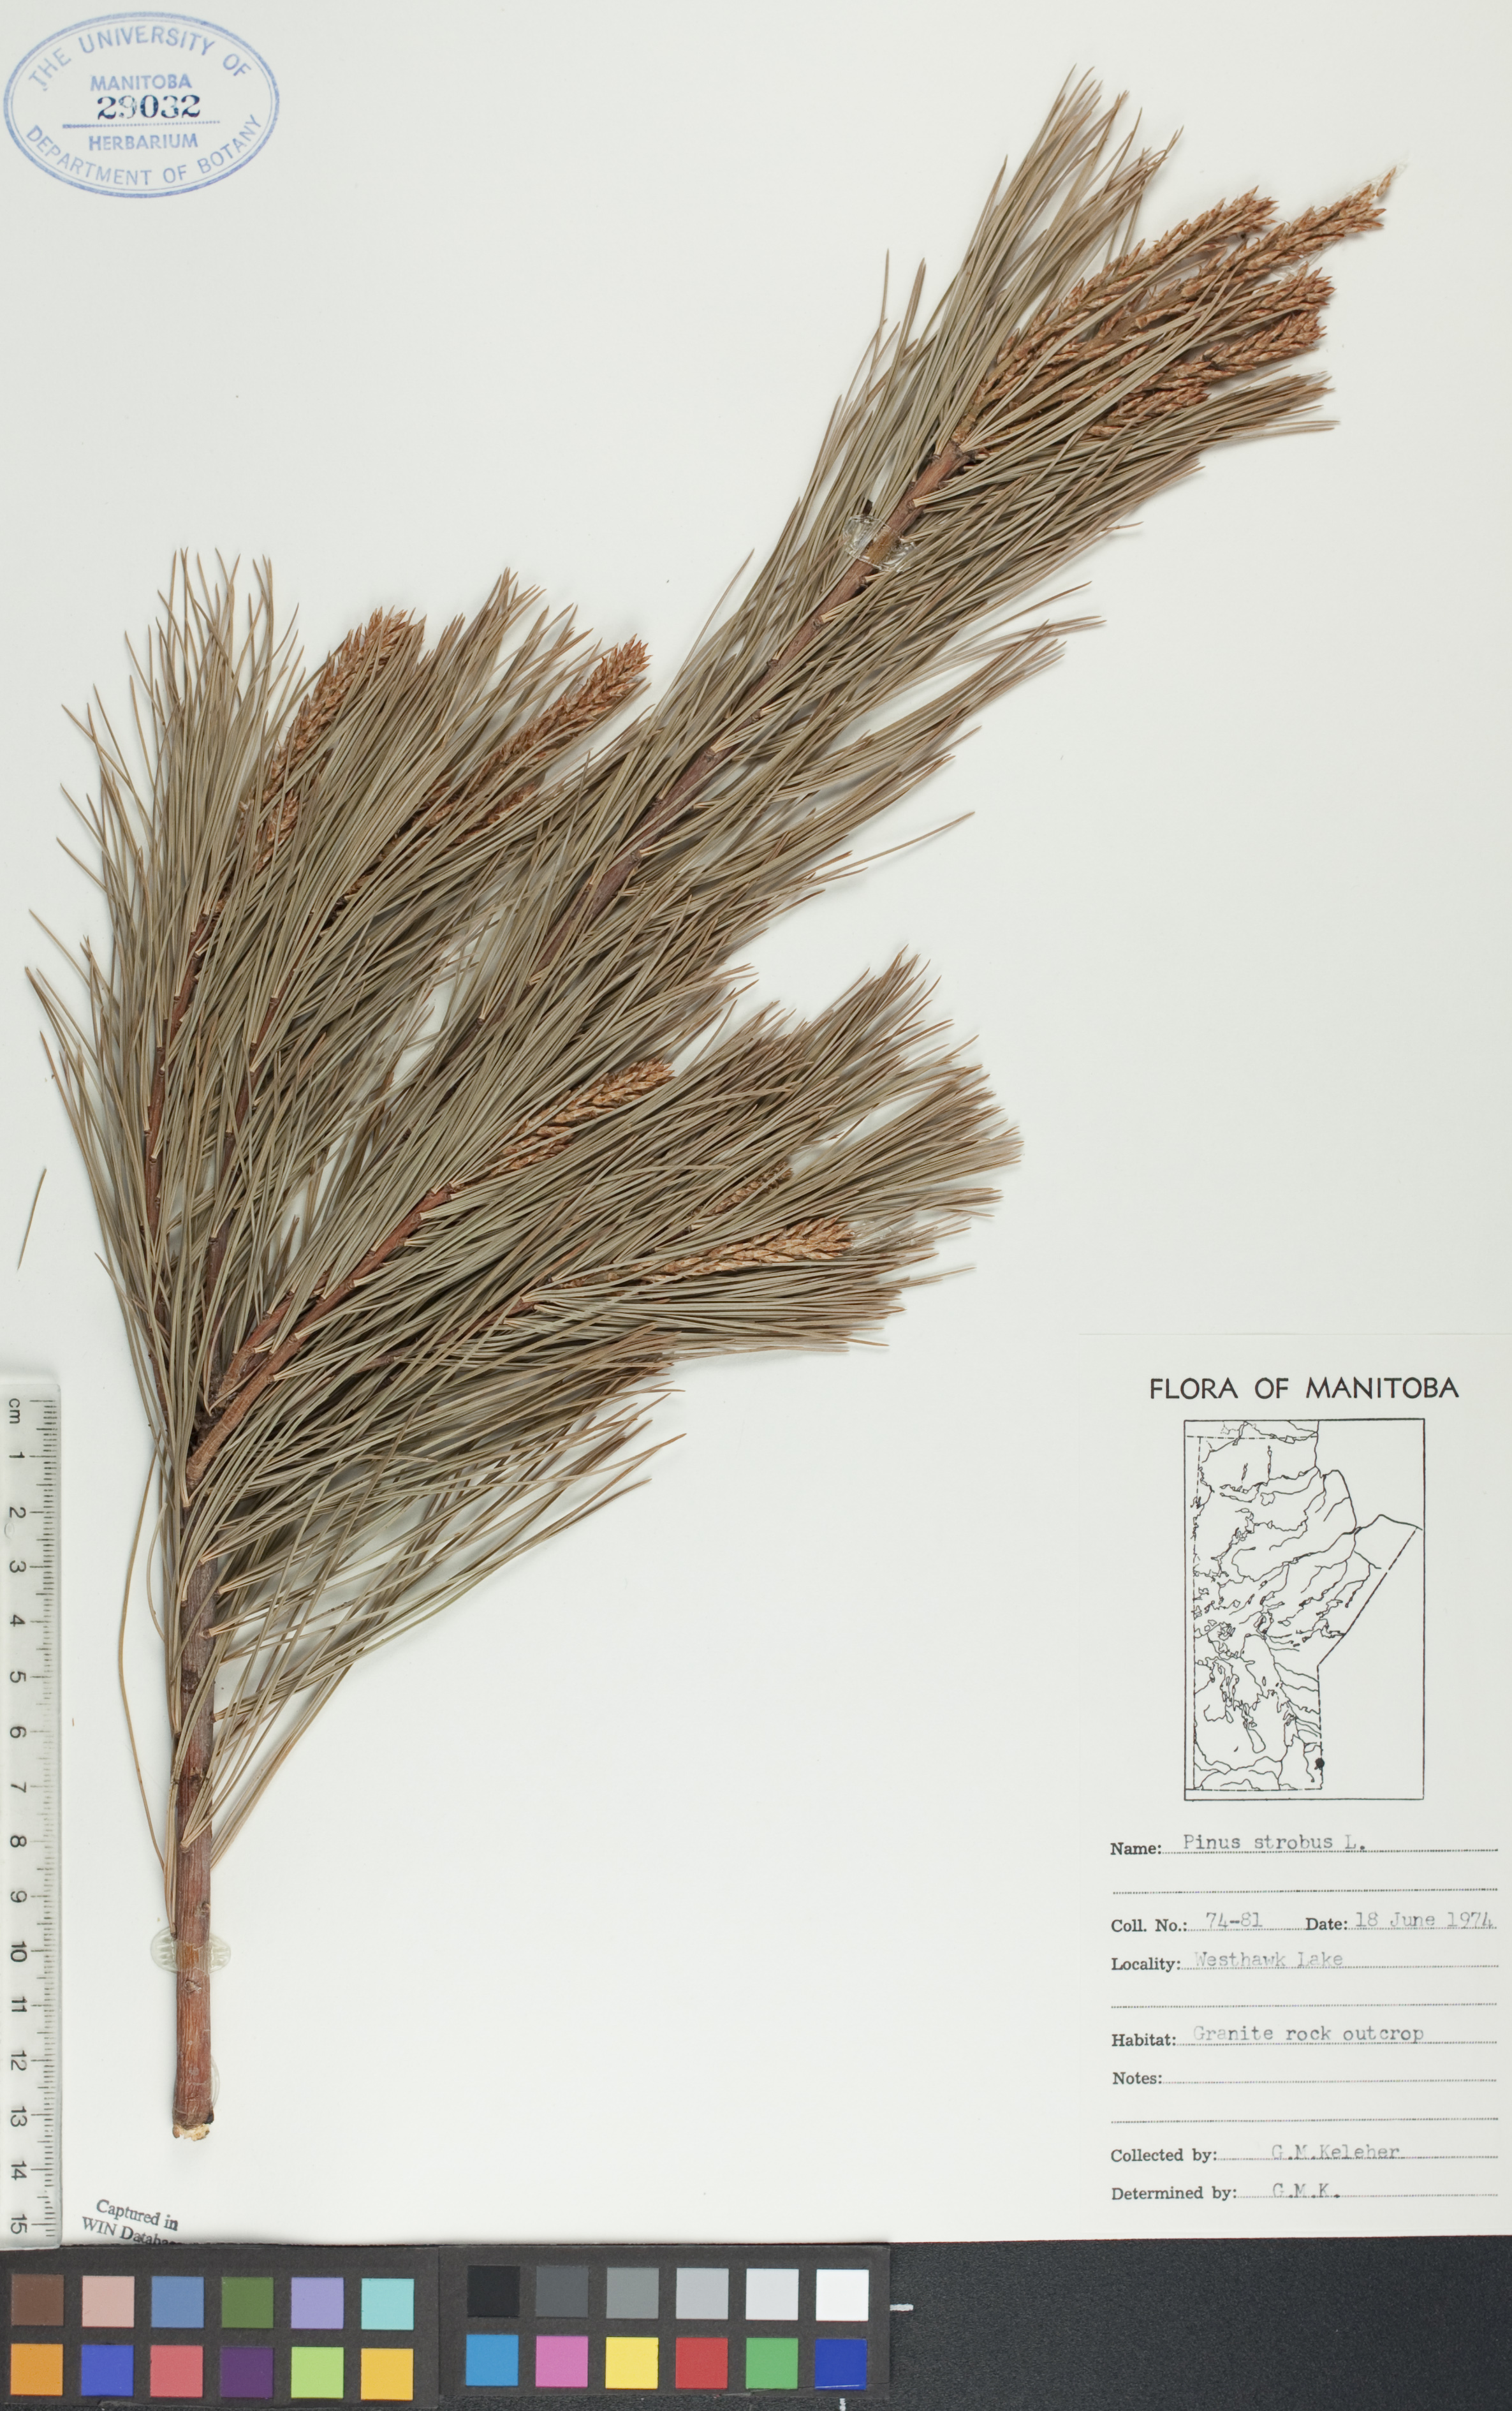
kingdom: Plantae
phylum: Tracheophyta
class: Pinopsida
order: Pinales
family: Pinaceae
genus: Pinus
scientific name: Pinus strobus
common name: Weymouth pine
